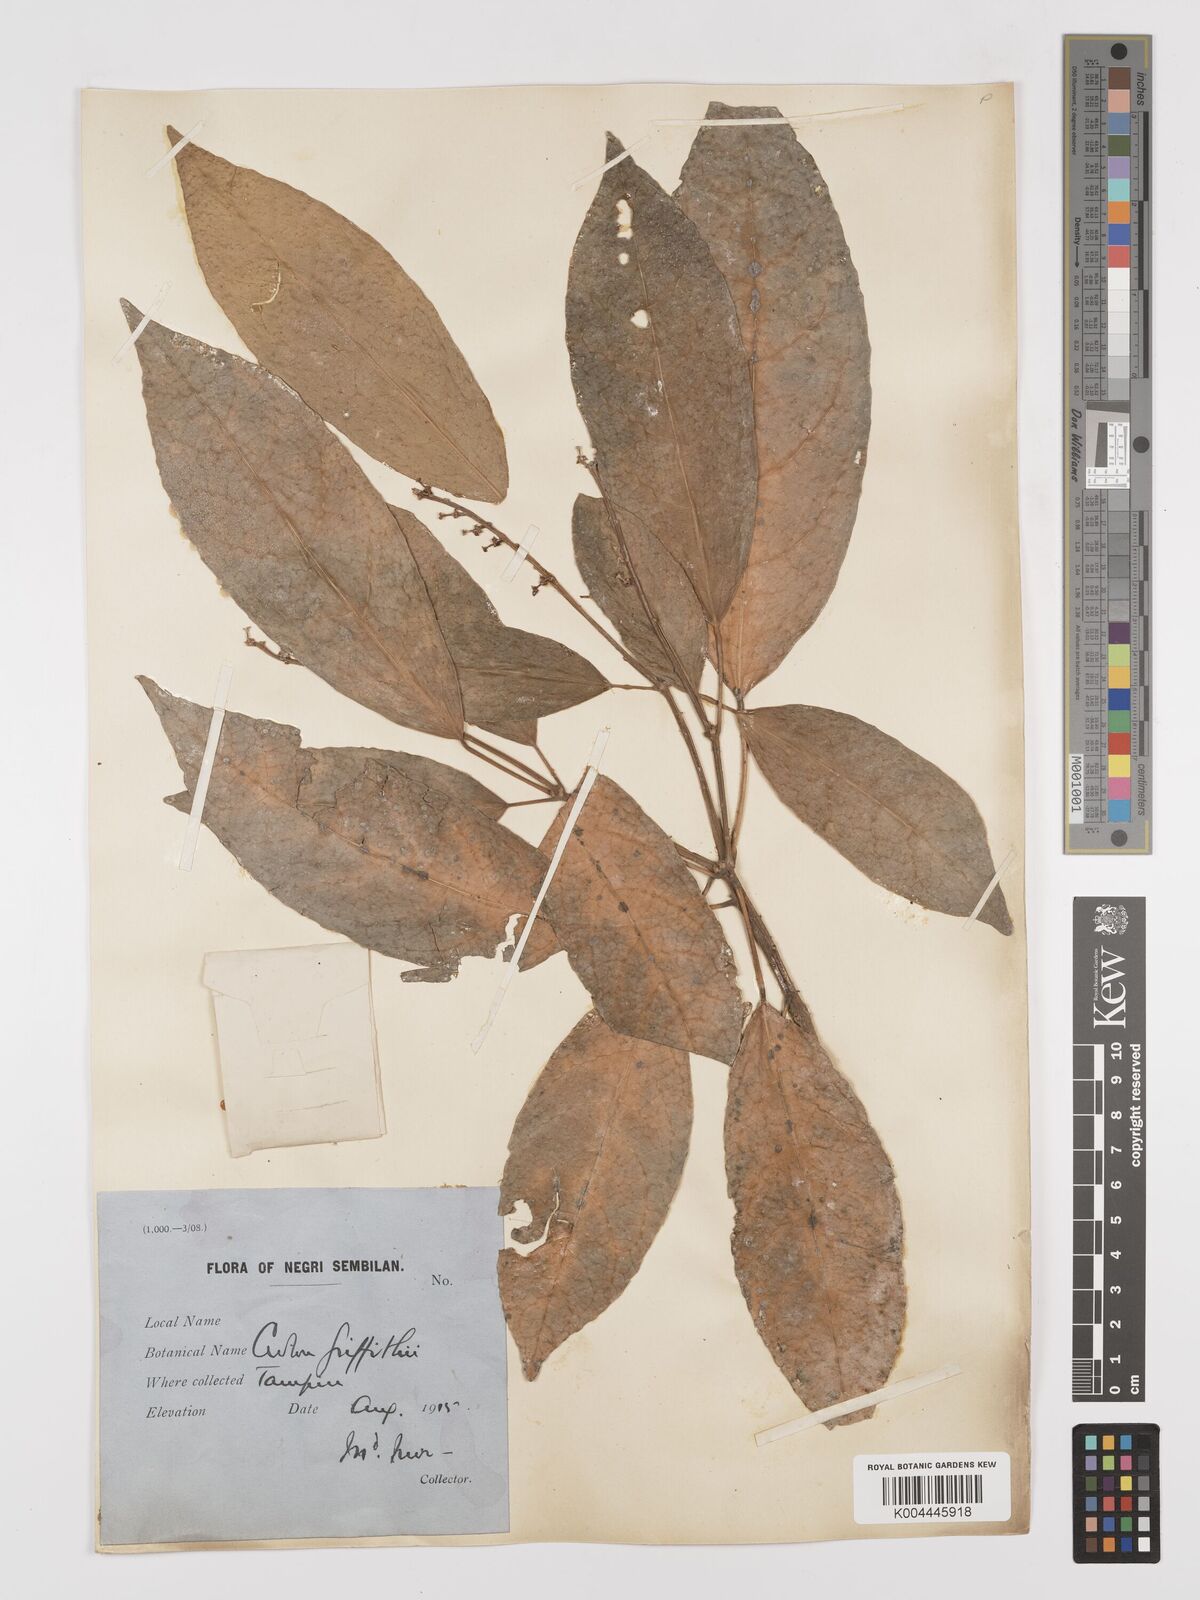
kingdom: Plantae
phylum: Tracheophyta
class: Magnoliopsida
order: Malpighiales
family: Euphorbiaceae
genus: Croton
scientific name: Croton griffithii
